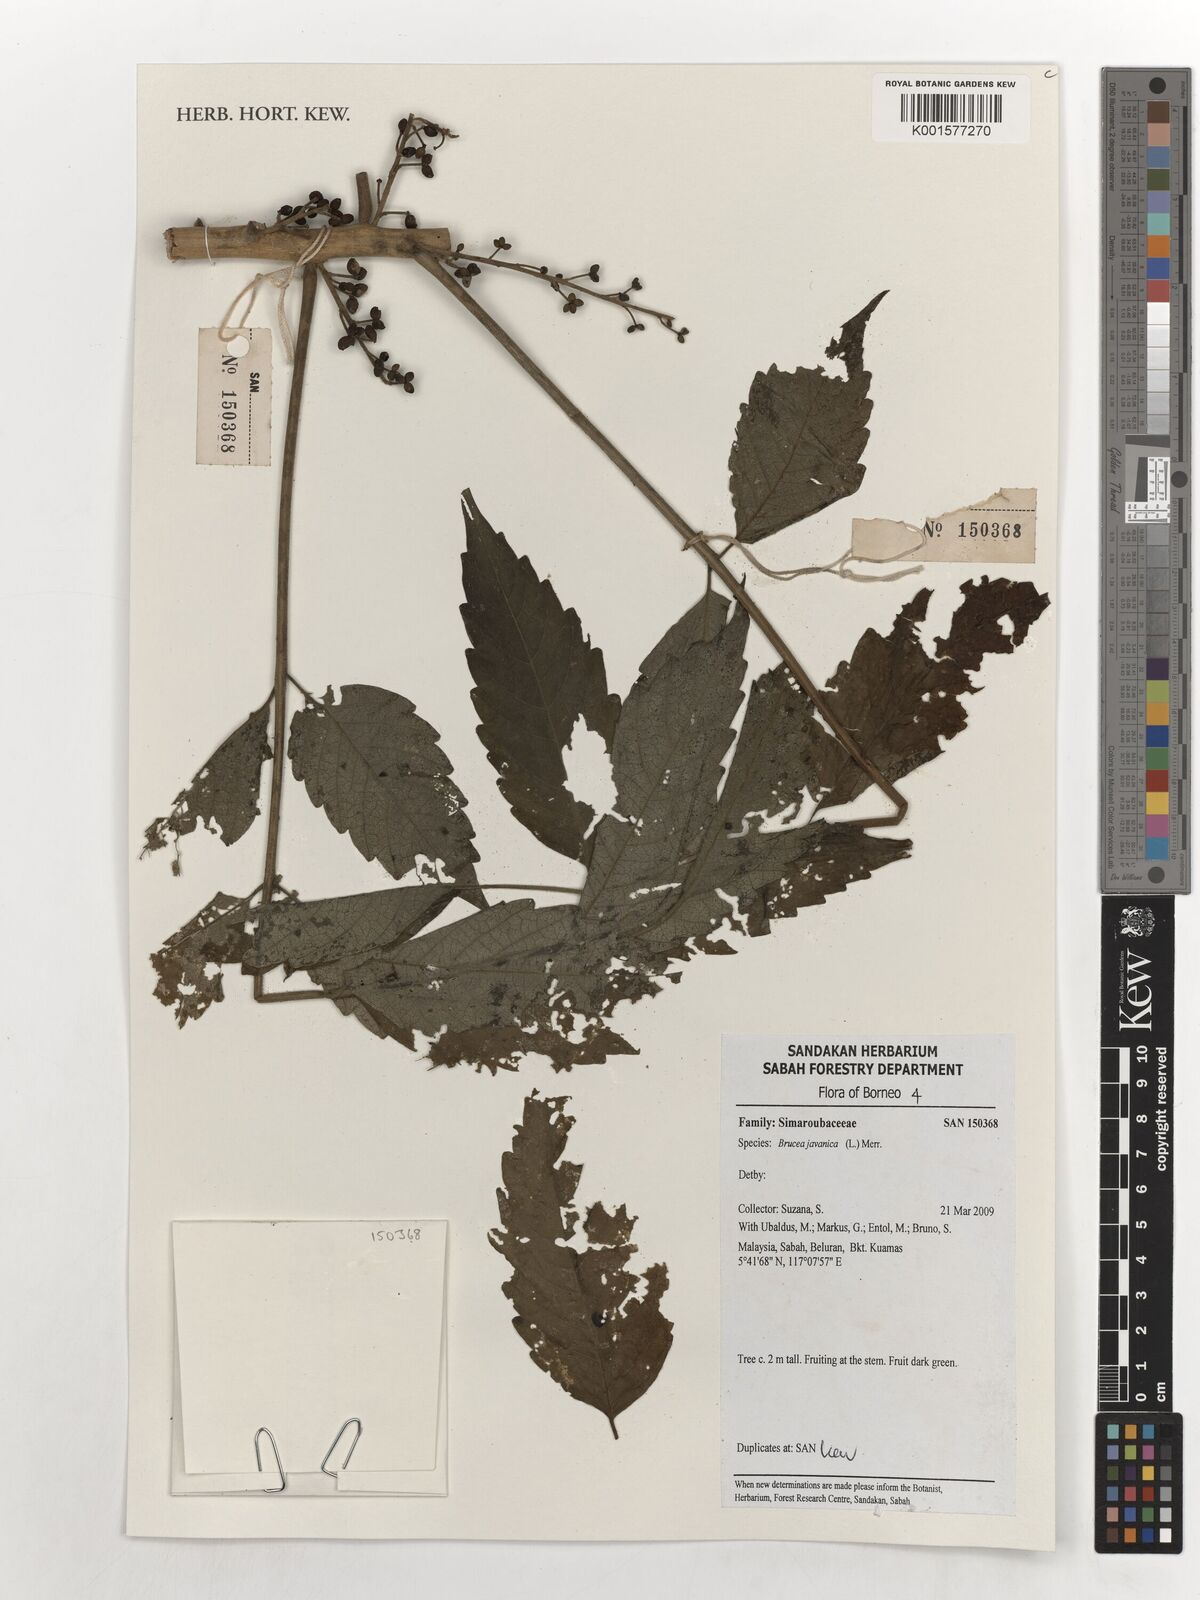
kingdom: Plantae
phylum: Tracheophyta
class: Magnoliopsida
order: Sapindales
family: Simaroubaceae
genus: Brucea
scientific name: Brucea javanica
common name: Macassar kernels
